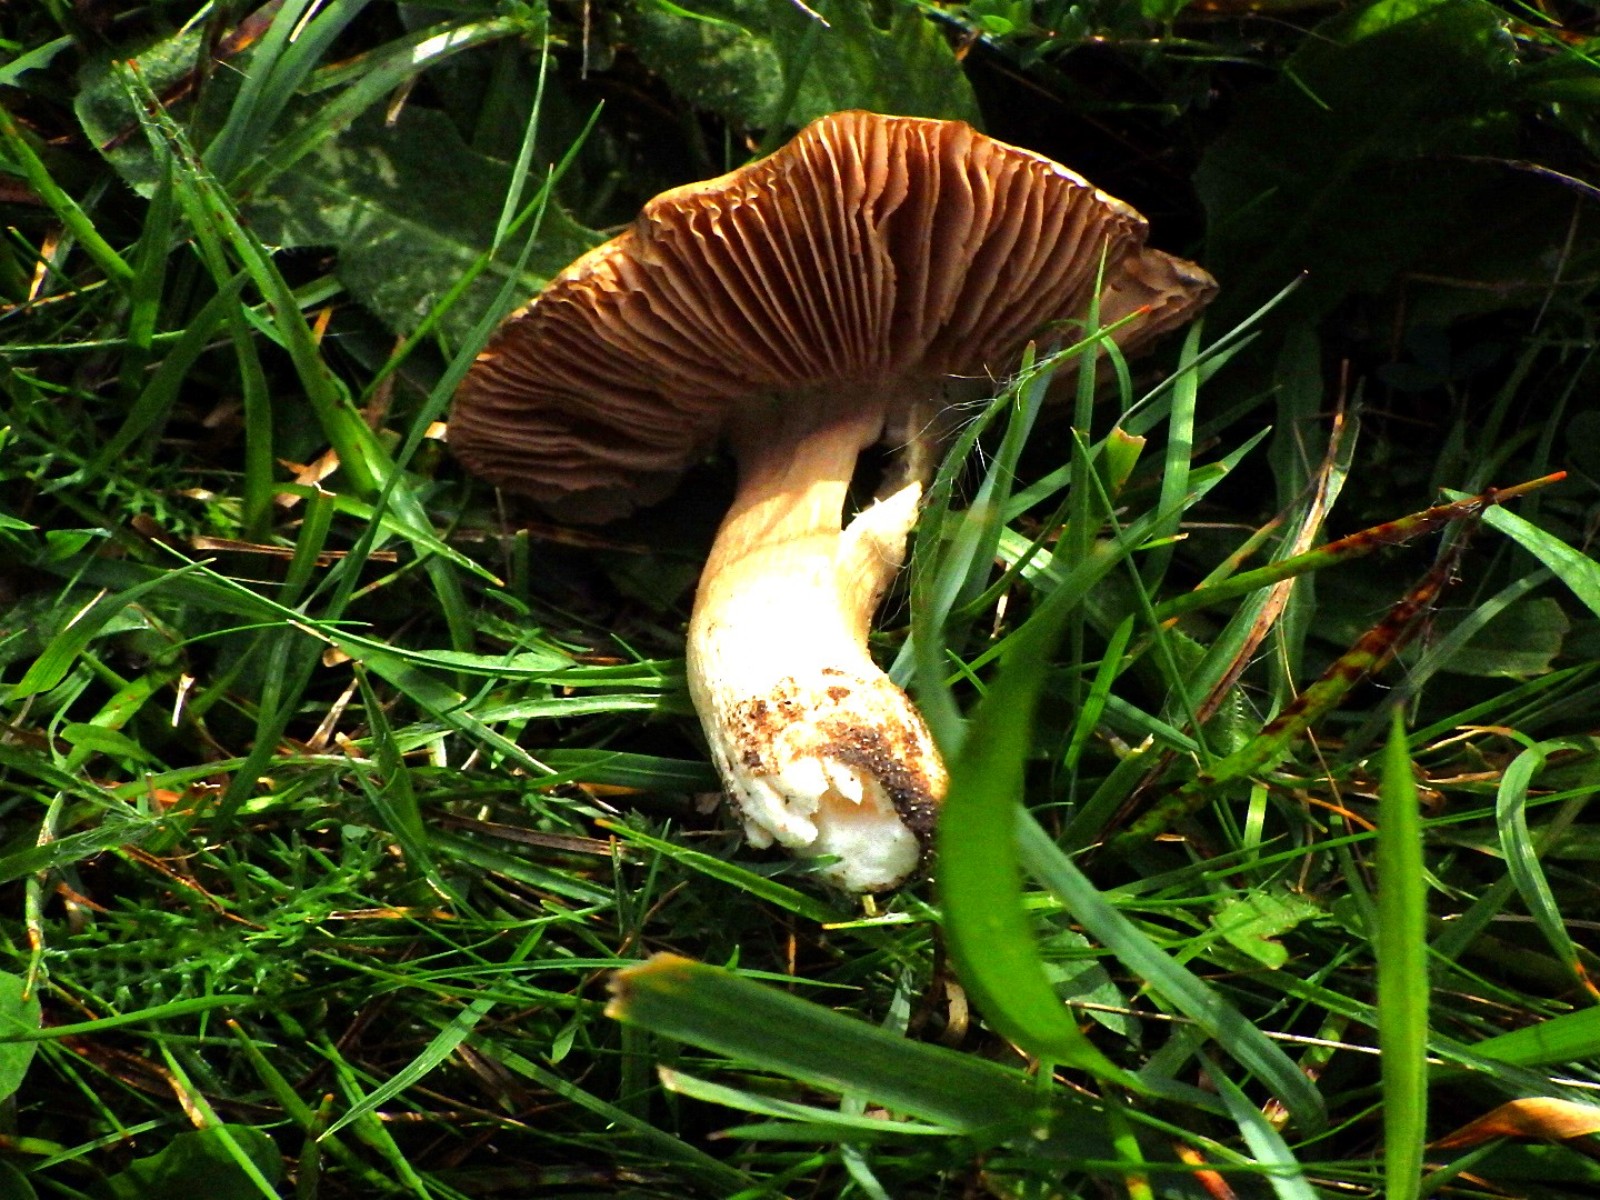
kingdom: Fungi
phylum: Basidiomycota
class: Agaricomycetes
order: Agaricales
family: Entolomataceae
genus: Entoloma
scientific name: Entoloma prunuloides
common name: mel-rødblad
